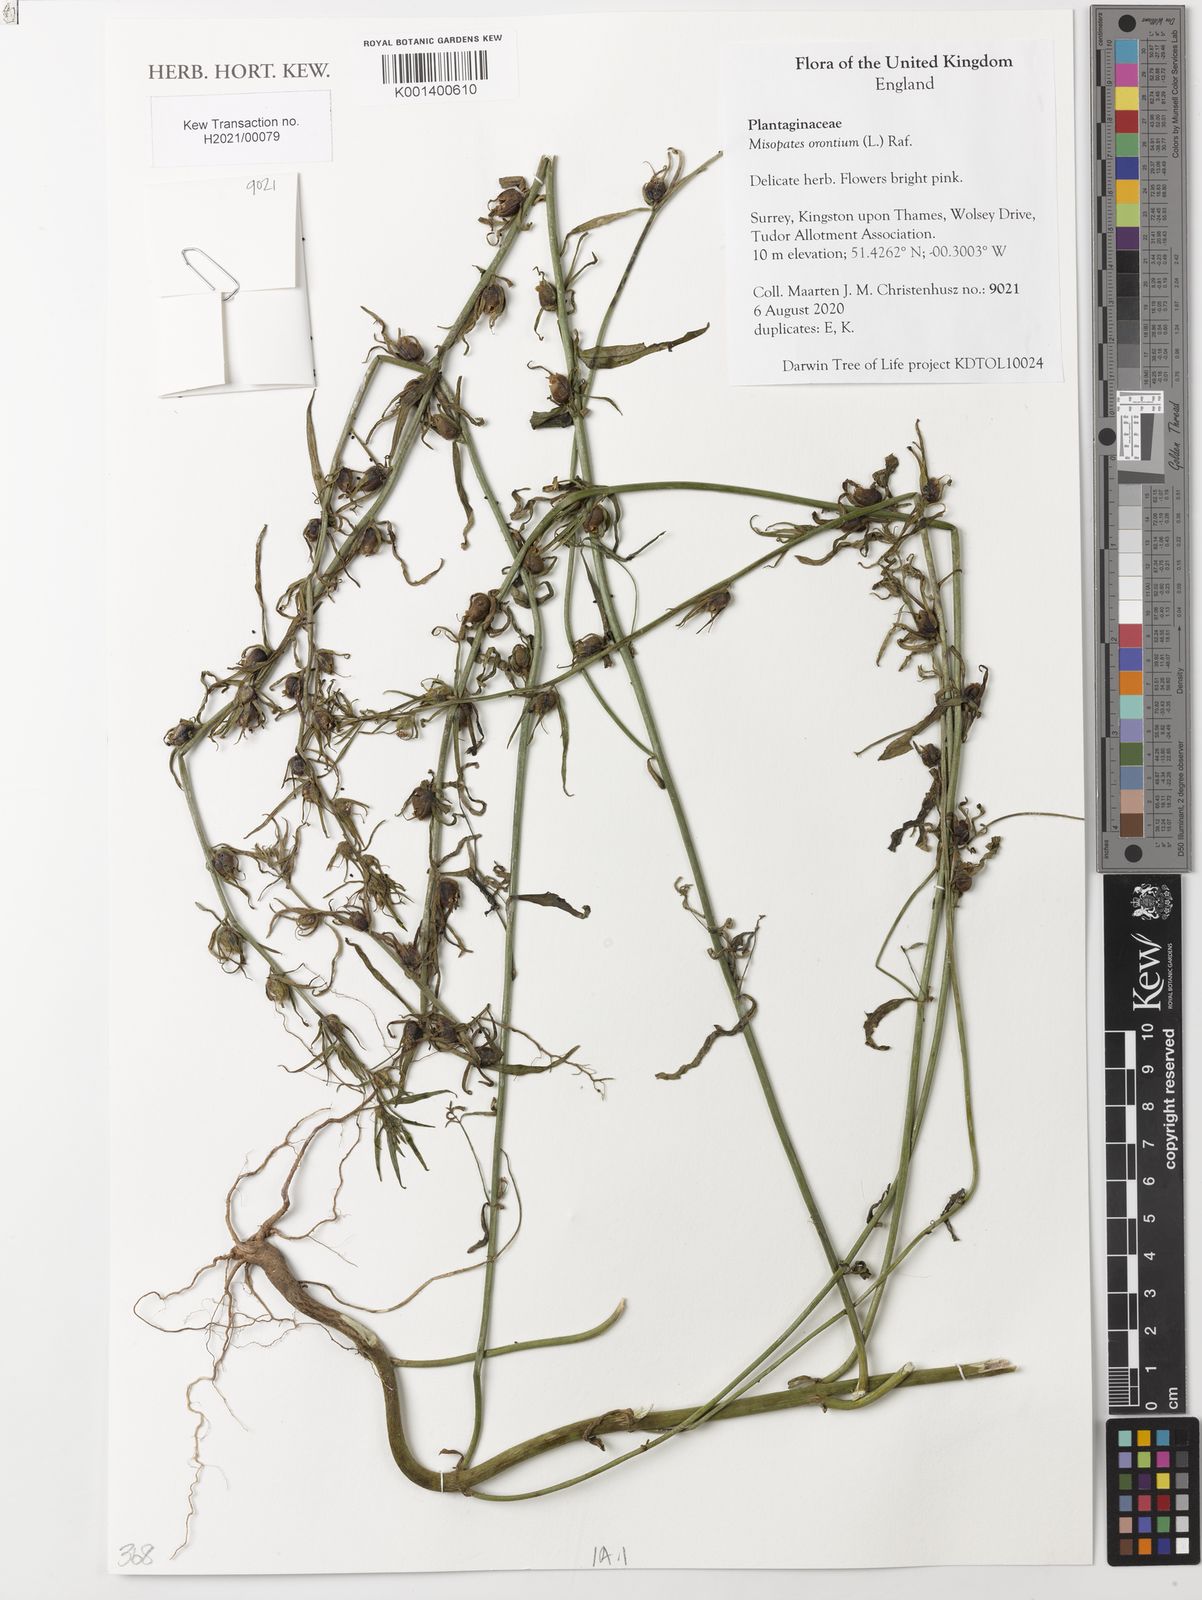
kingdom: Plantae
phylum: Tracheophyta
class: Magnoliopsida
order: Lamiales
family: Plantaginaceae
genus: Misopates
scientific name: Misopates orontium
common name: Weasel's-snout
